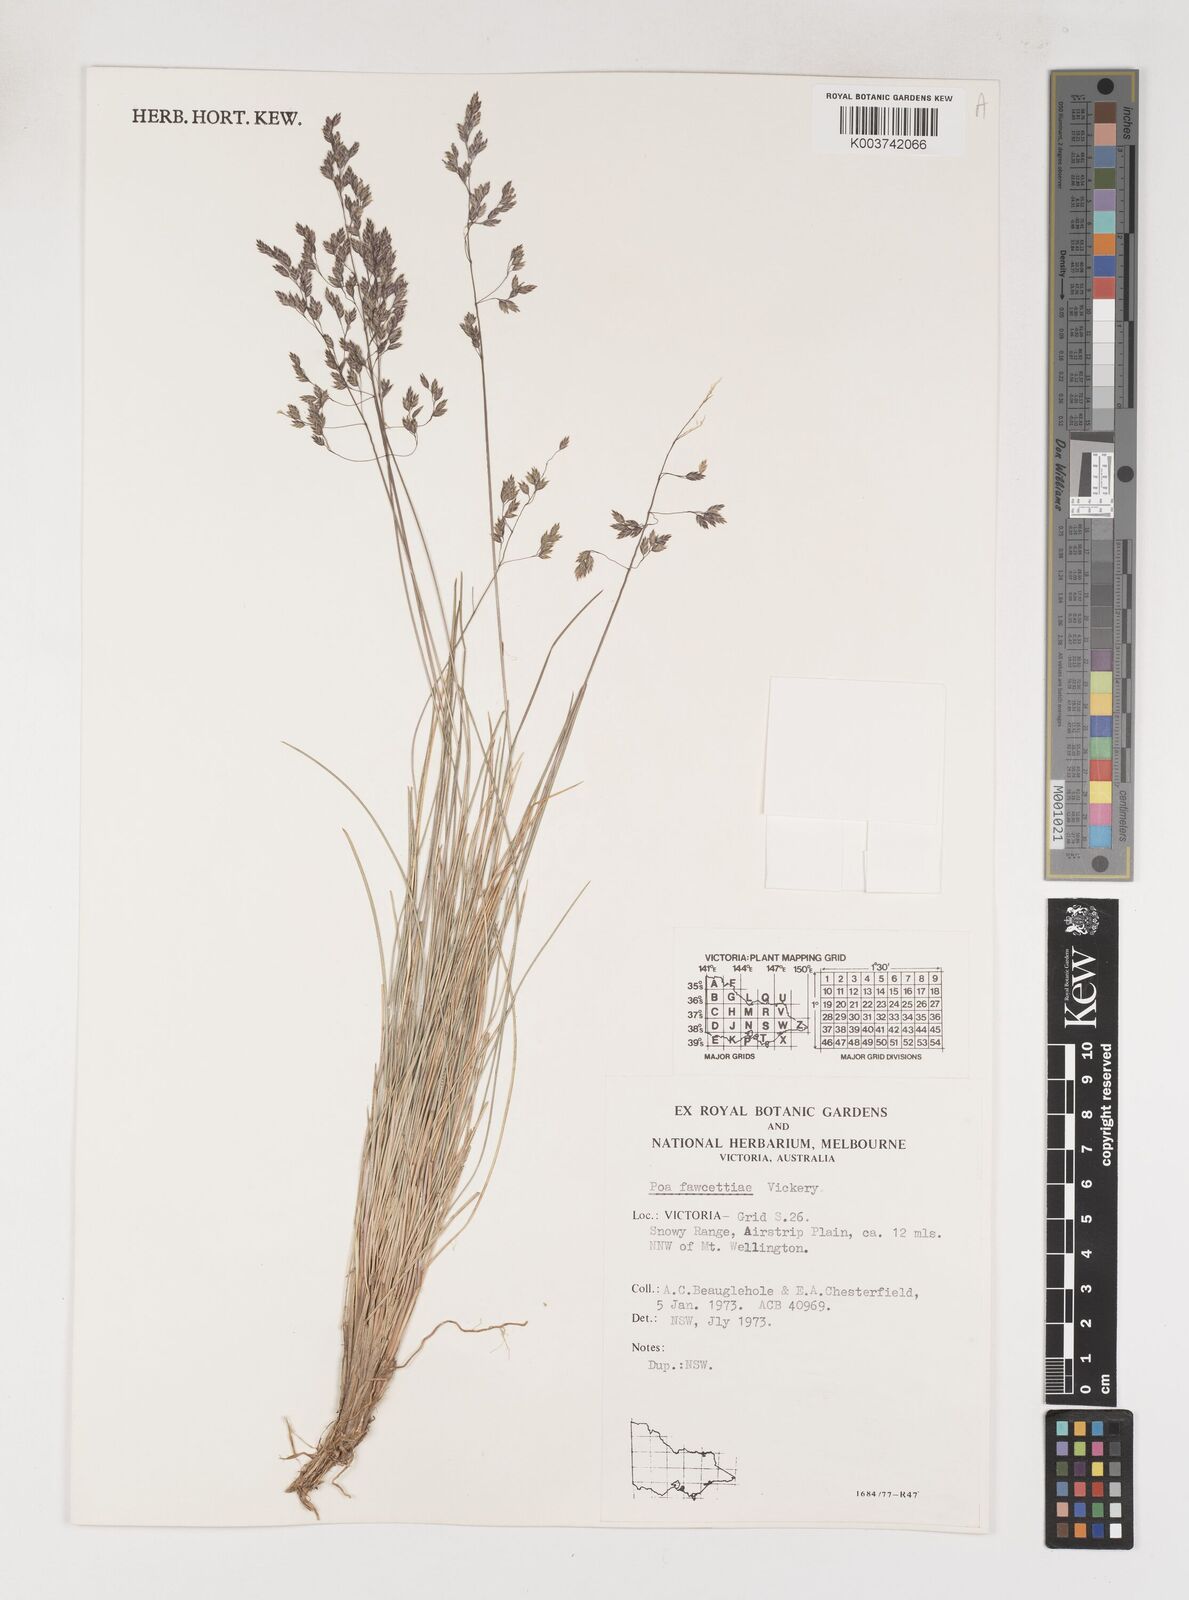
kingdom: Plantae
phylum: Tracheophyta
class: Liliopsida
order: Poales
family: Poaceae
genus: Poa
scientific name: Poa fawcettiae
